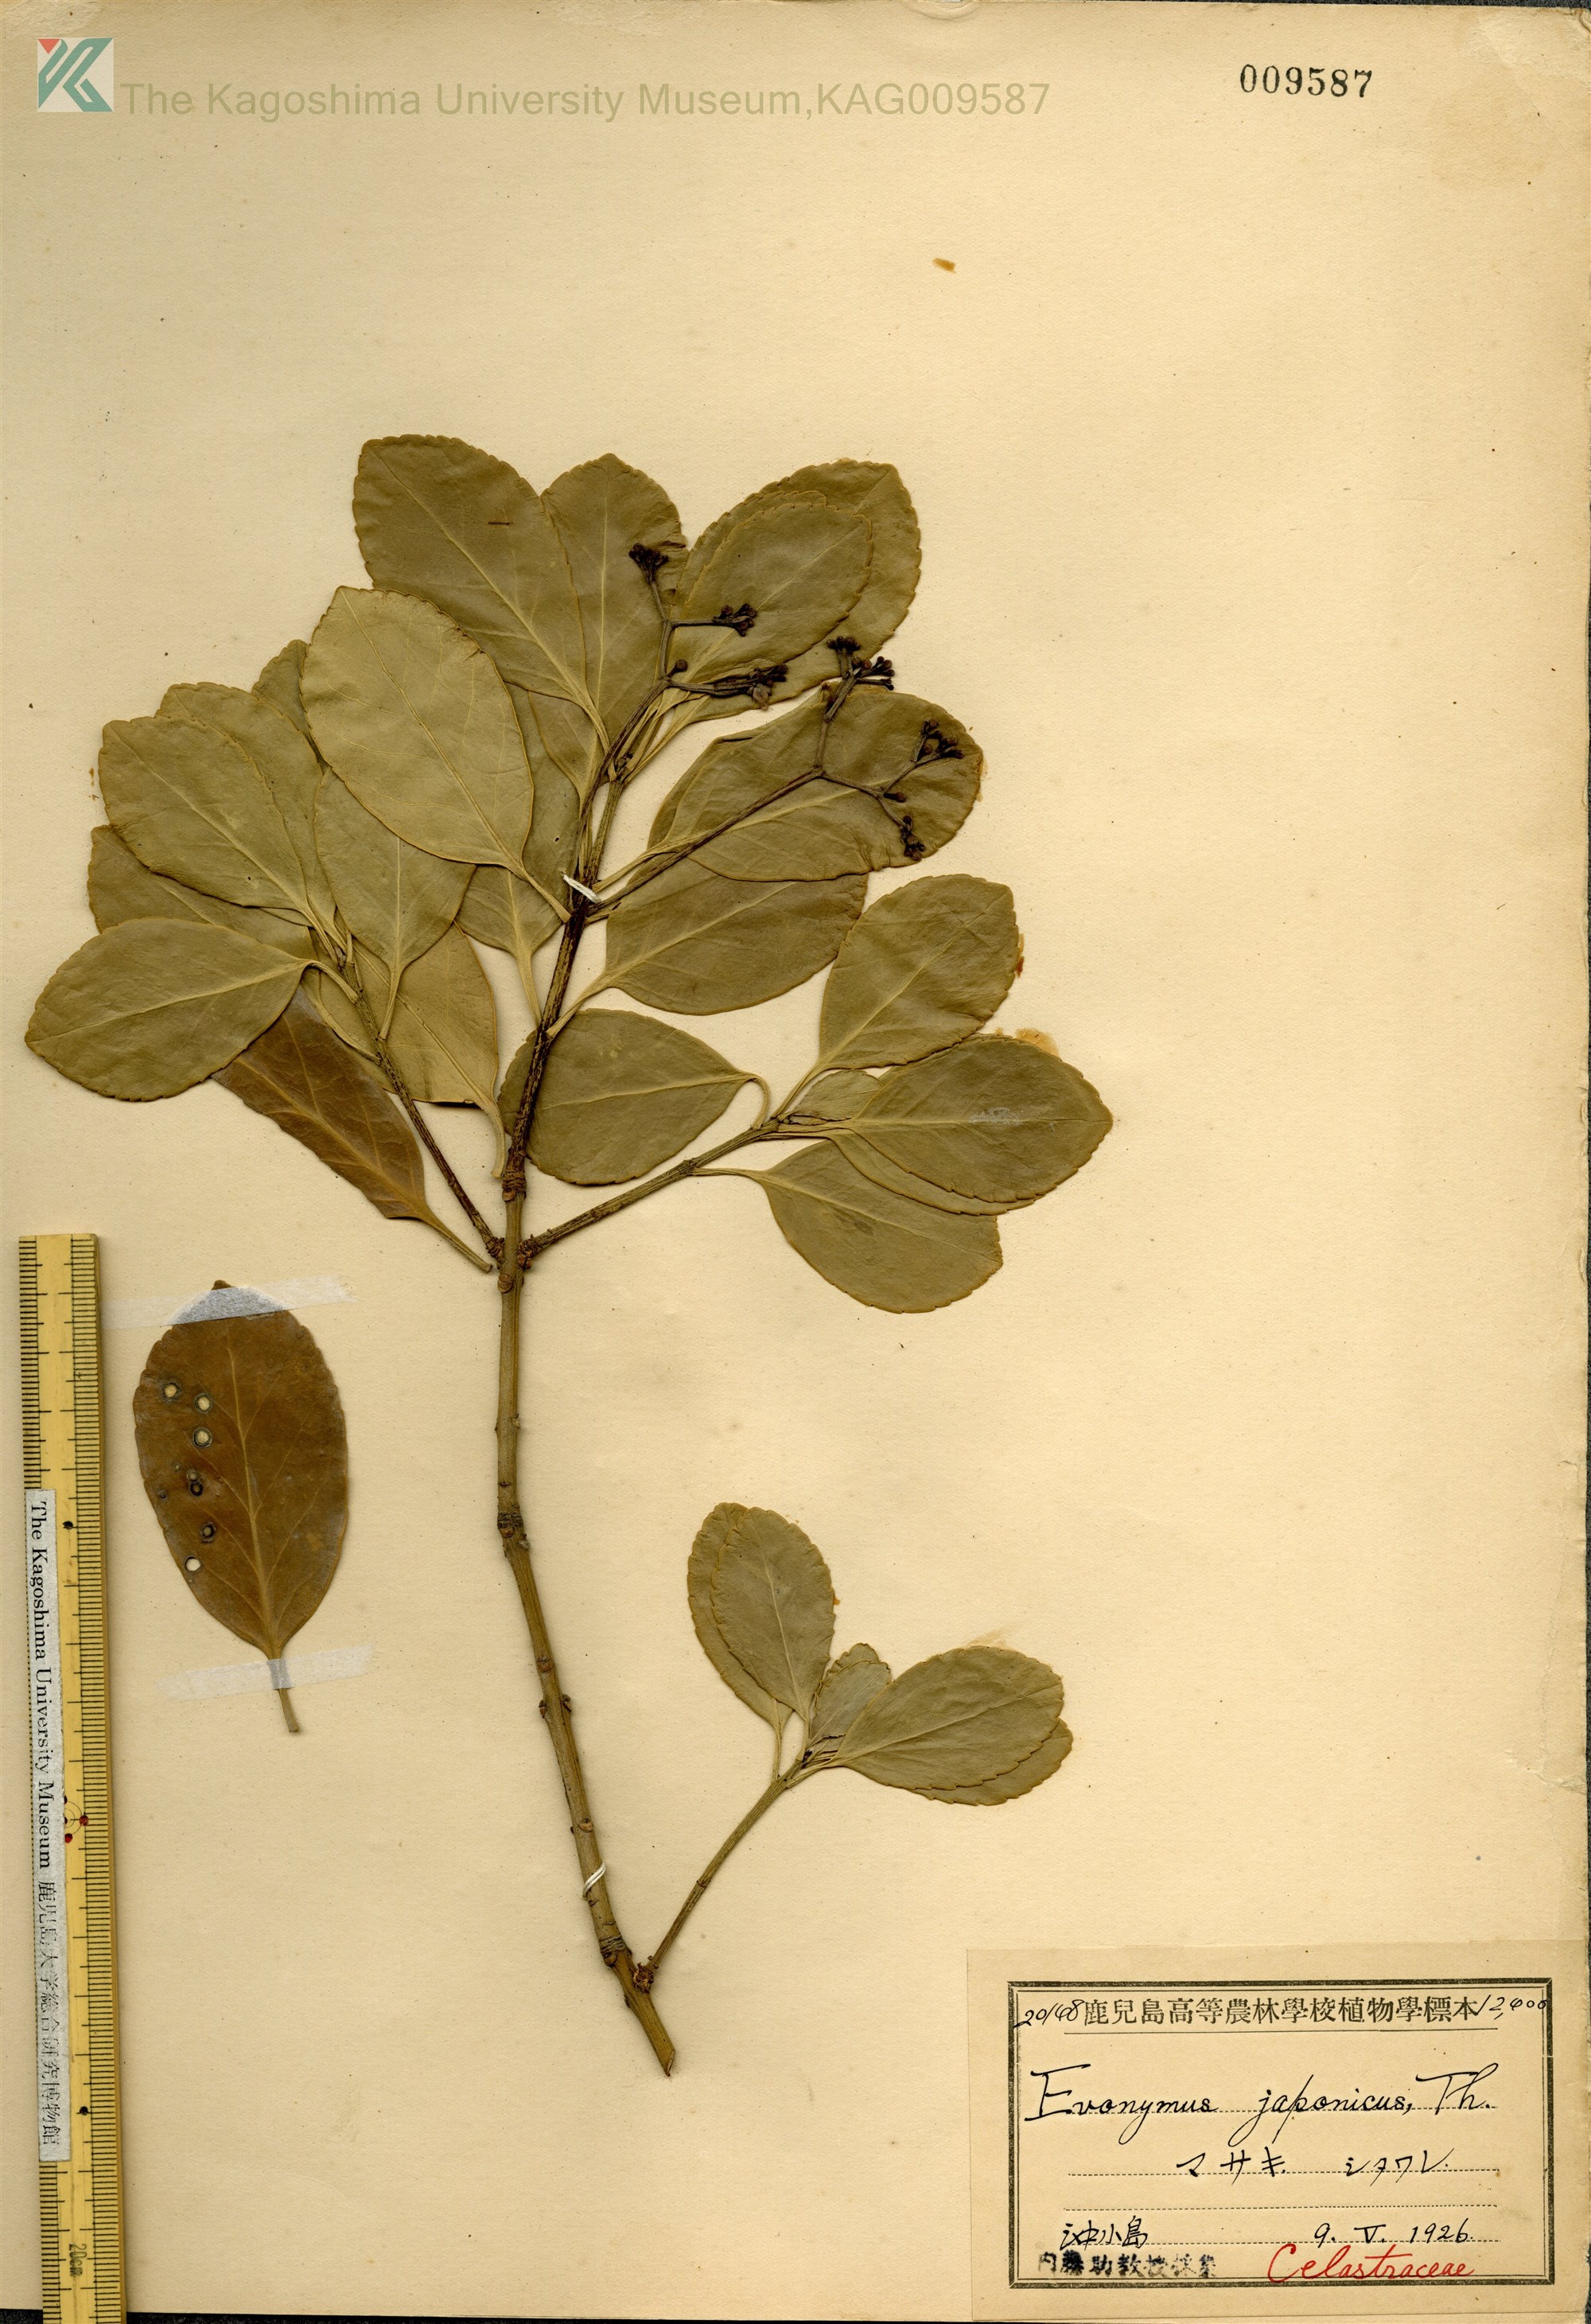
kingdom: Plantae
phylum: Tracheophyta
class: Magnoliopsida
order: Celastrales
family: Celastraceae
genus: Euonymus
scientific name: Euonymus japonicus
